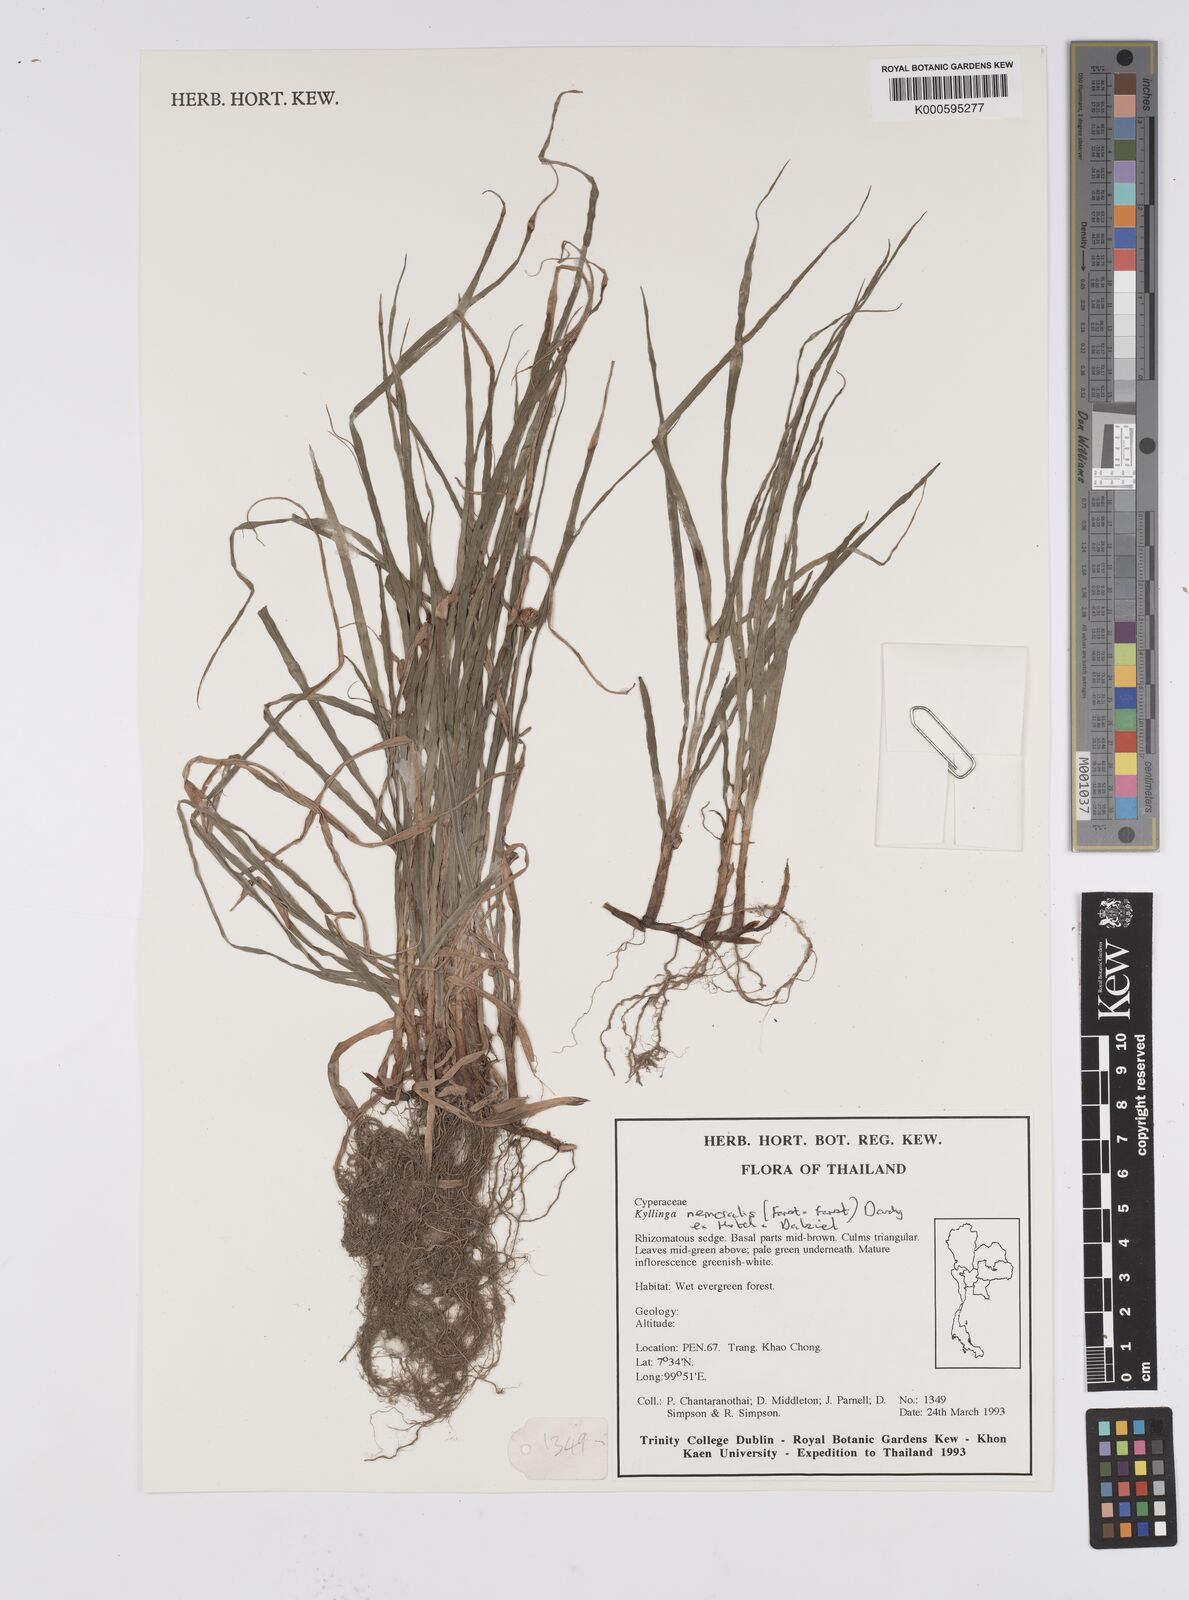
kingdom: Plantae
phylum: Tracheophyta
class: Liliopsida
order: Poales
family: Cyperaceae
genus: Cyperus
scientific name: Cyperus mindorensis
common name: Flatsedge
